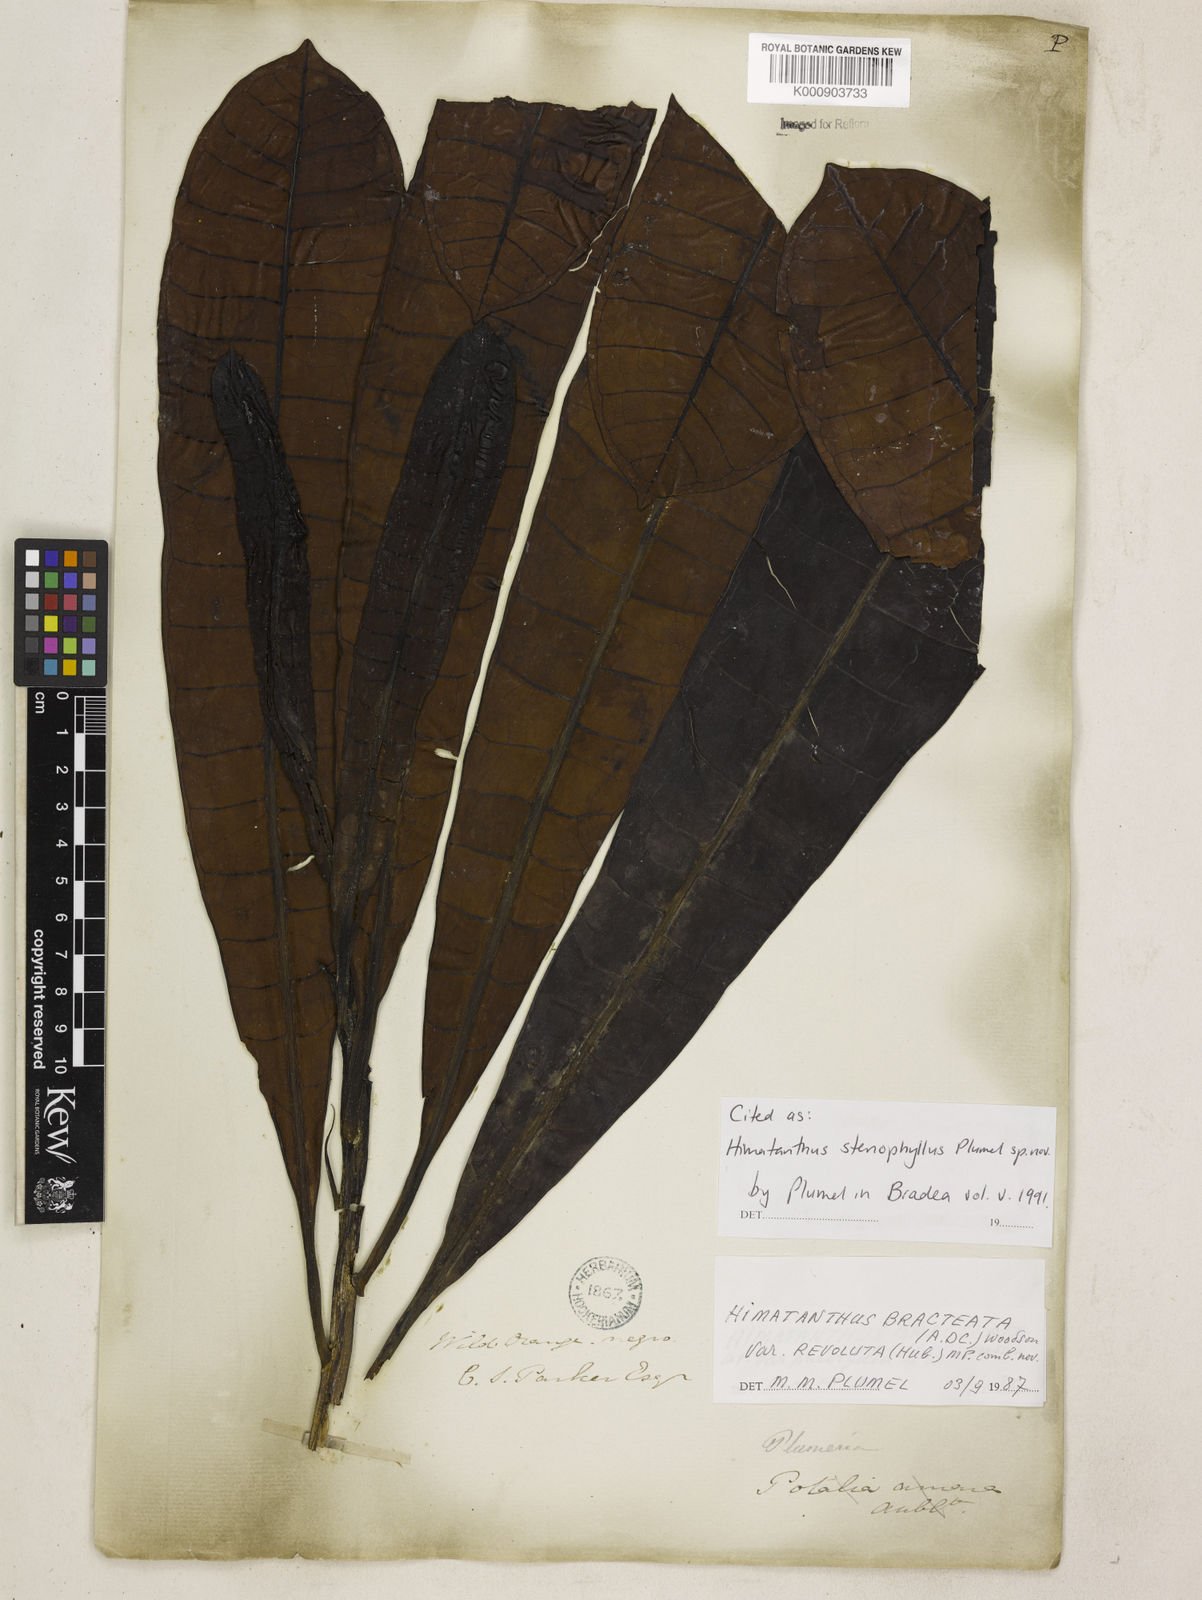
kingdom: Plantae
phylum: Tracheophyta
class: Magnoliopsida
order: Gentianales
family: Apocynaceae
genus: Himatanthus
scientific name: Himatanthus tarapotensis
